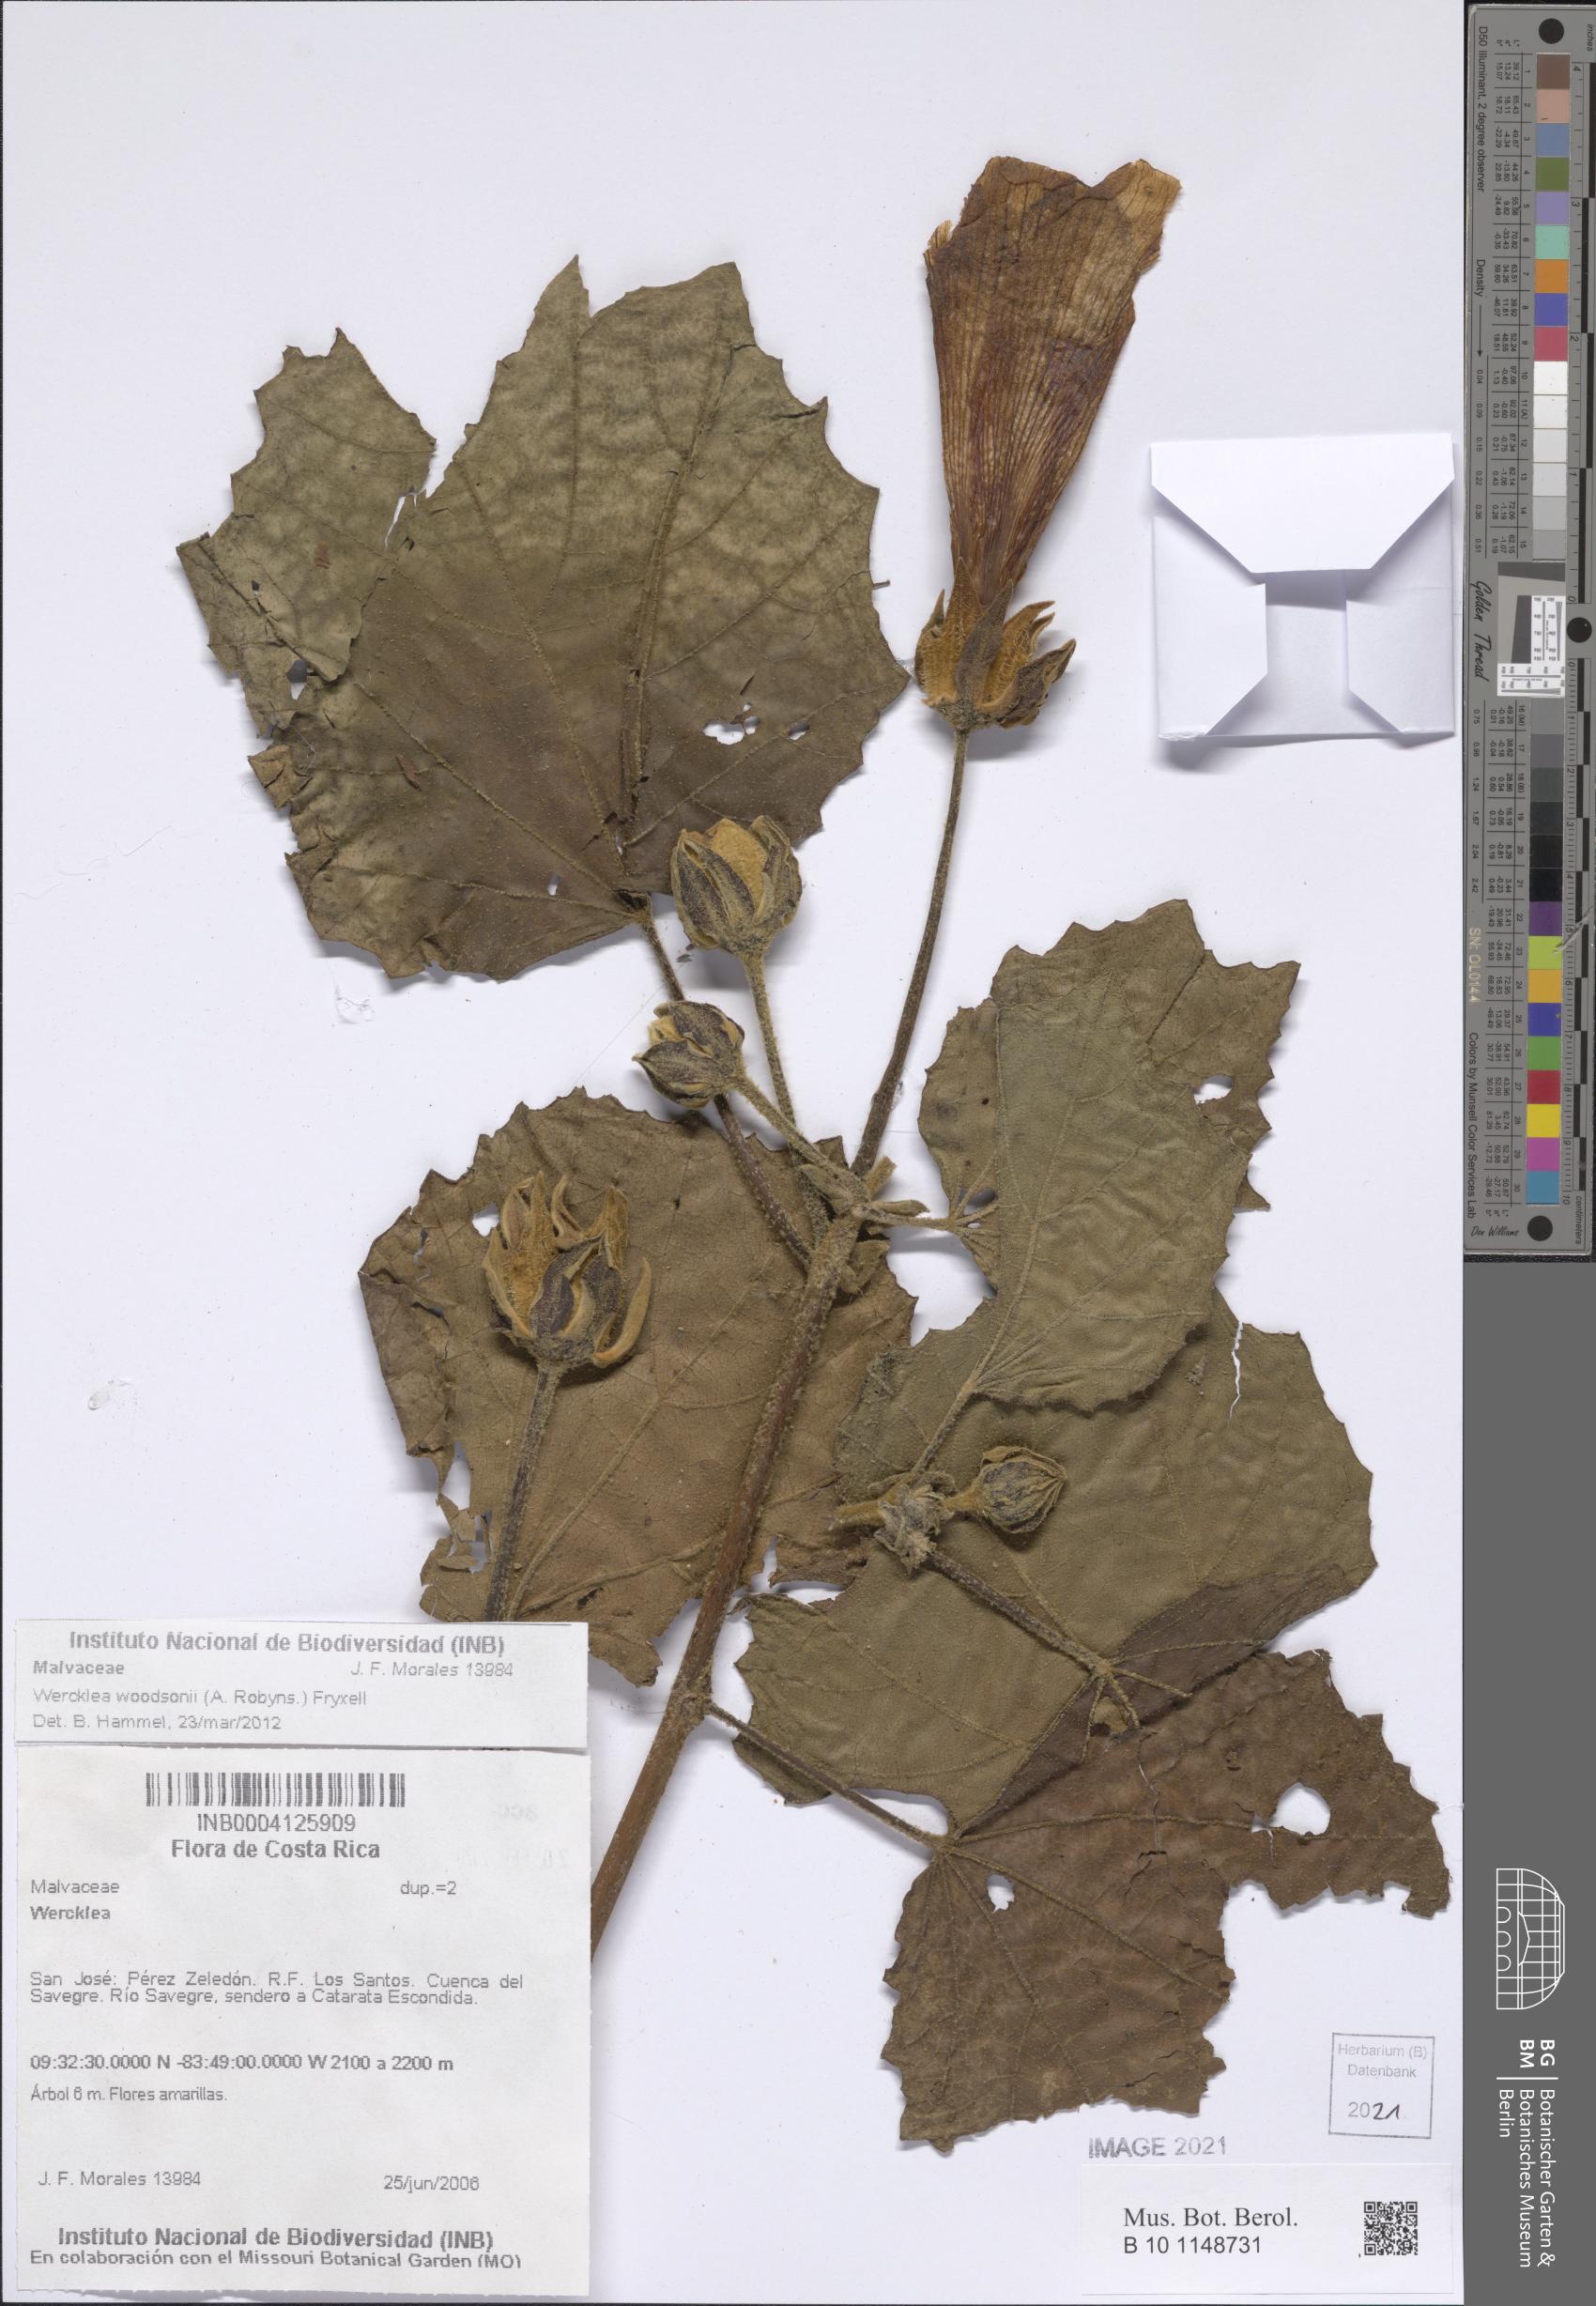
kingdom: Plantae
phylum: Tracheophyta
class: Magnoliopsida
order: Malvales
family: Malvaceae
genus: Wercklea
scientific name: Wercklea woodsonii
